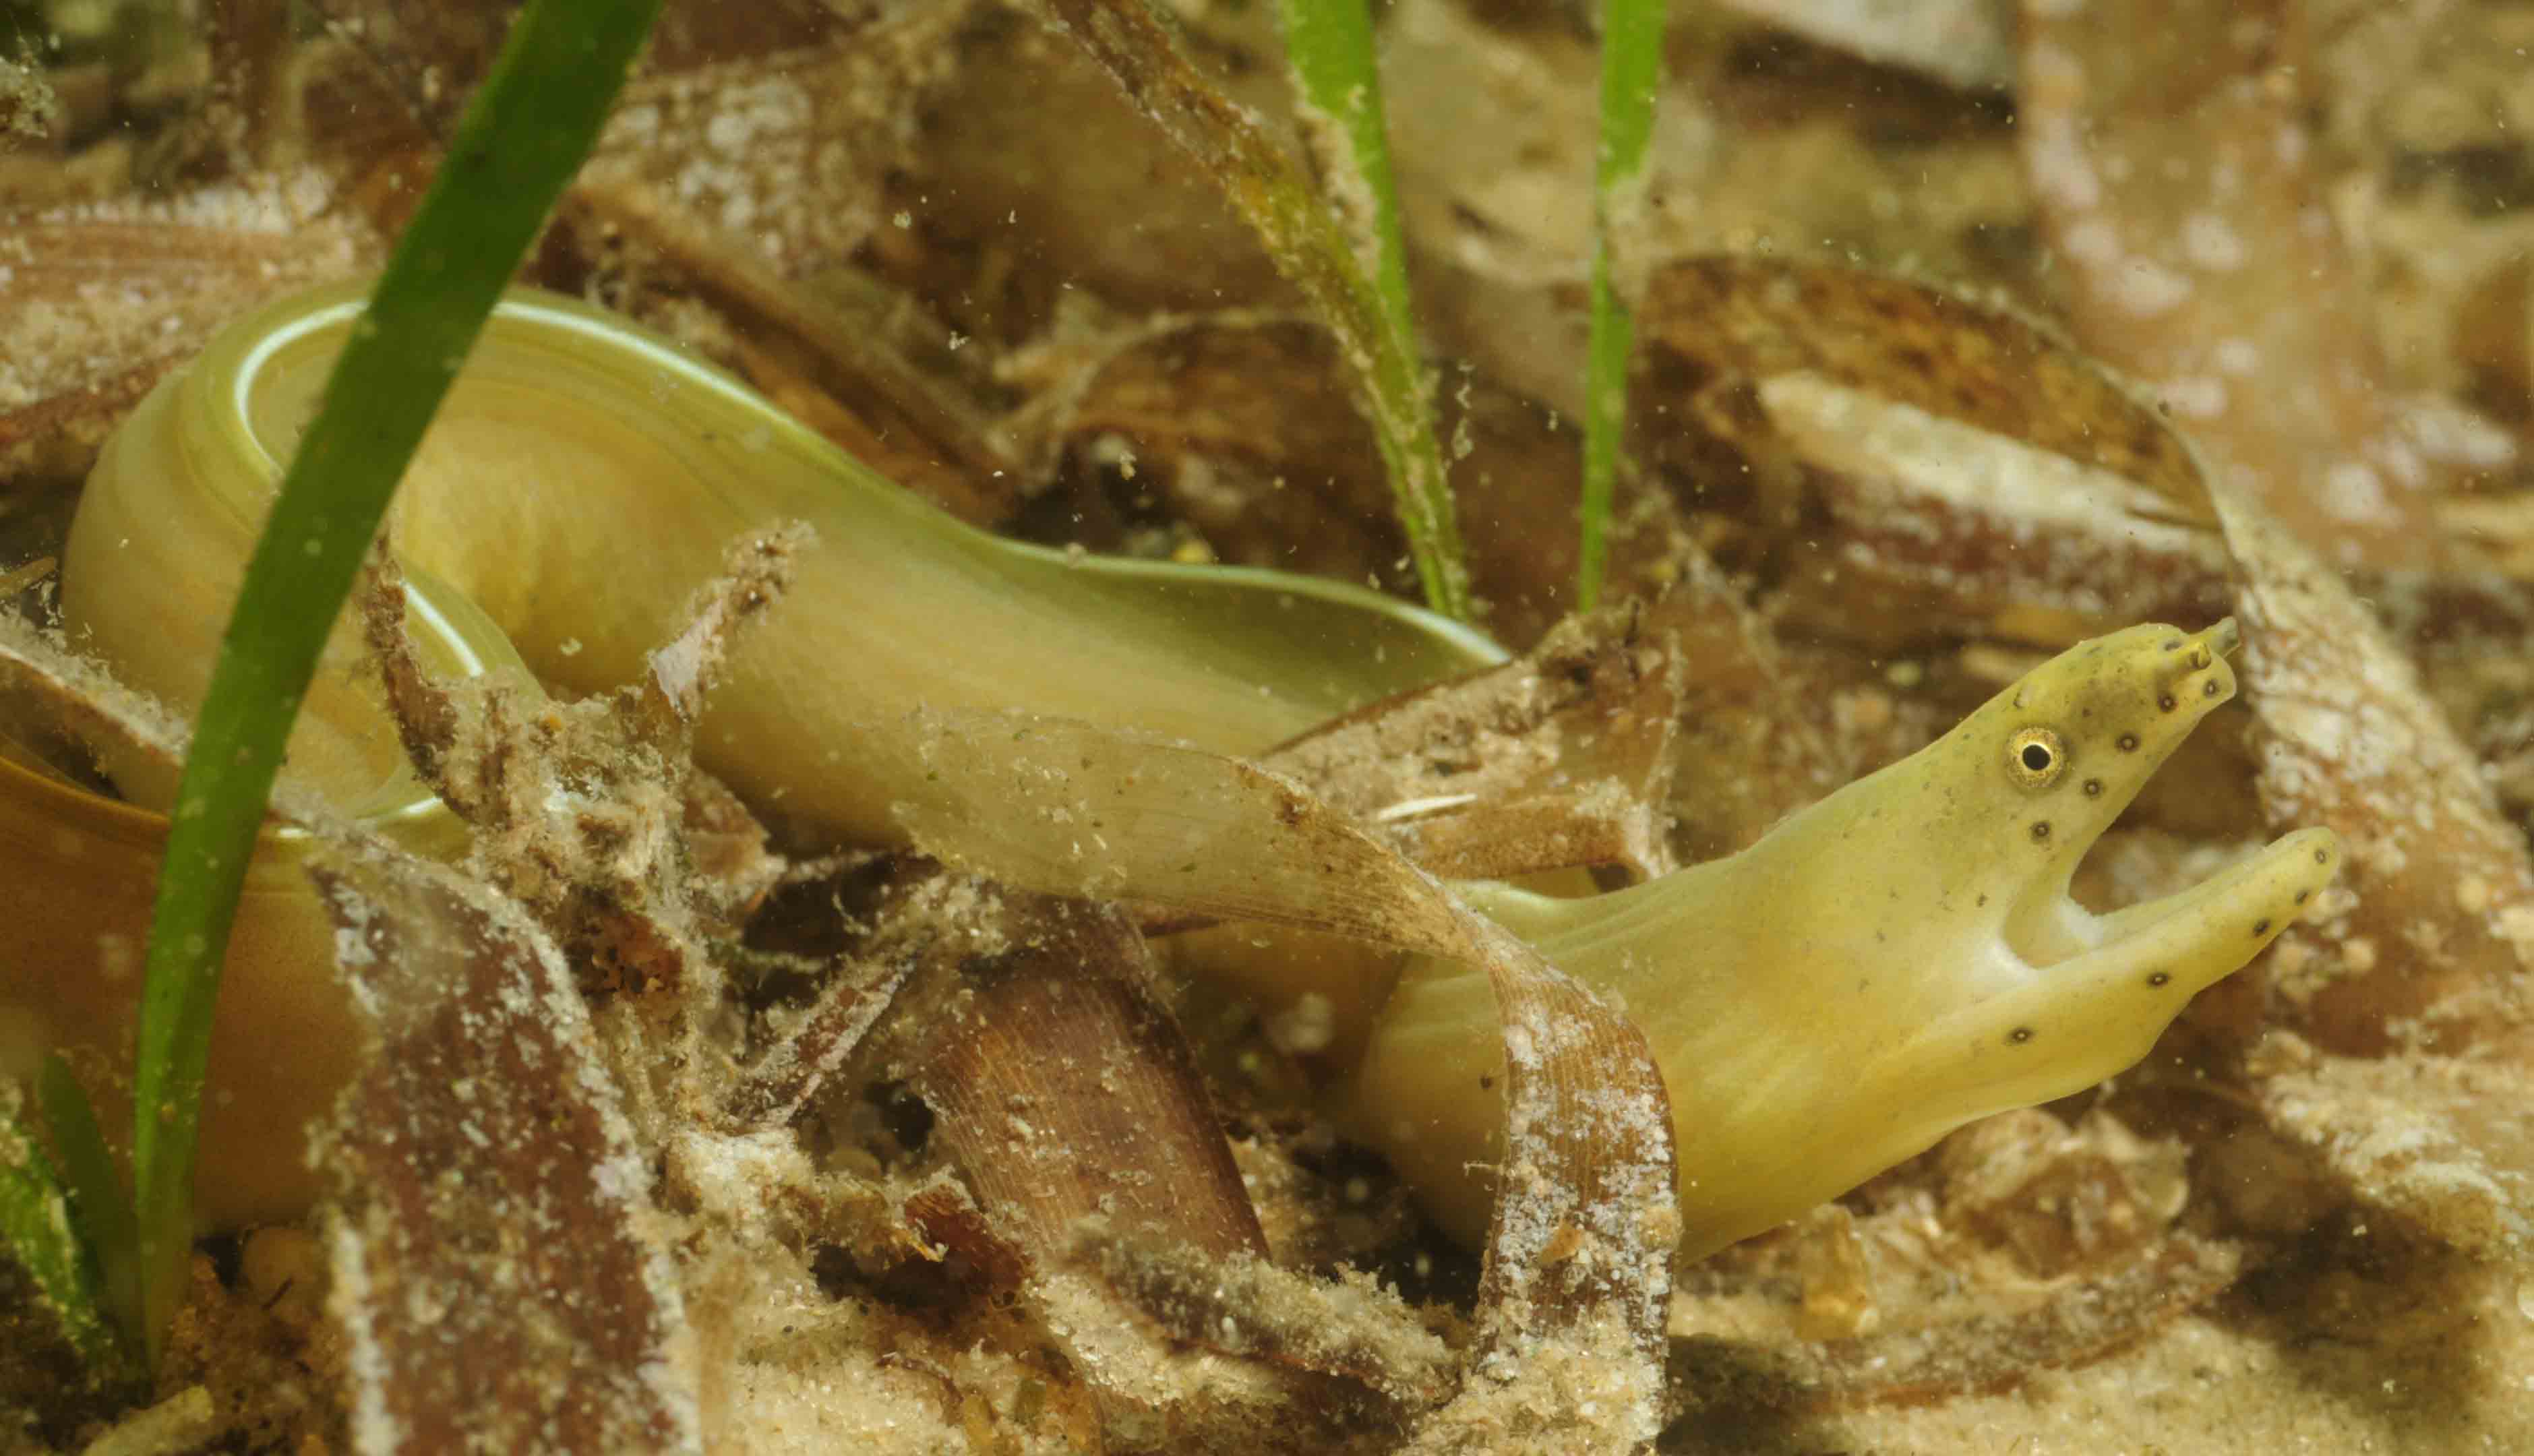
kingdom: Animalia
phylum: Chordata
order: Anguilliformes
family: Muraenidae
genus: Pseudechidna
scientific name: Pseudechidna brummeri
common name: White ribbon eel
